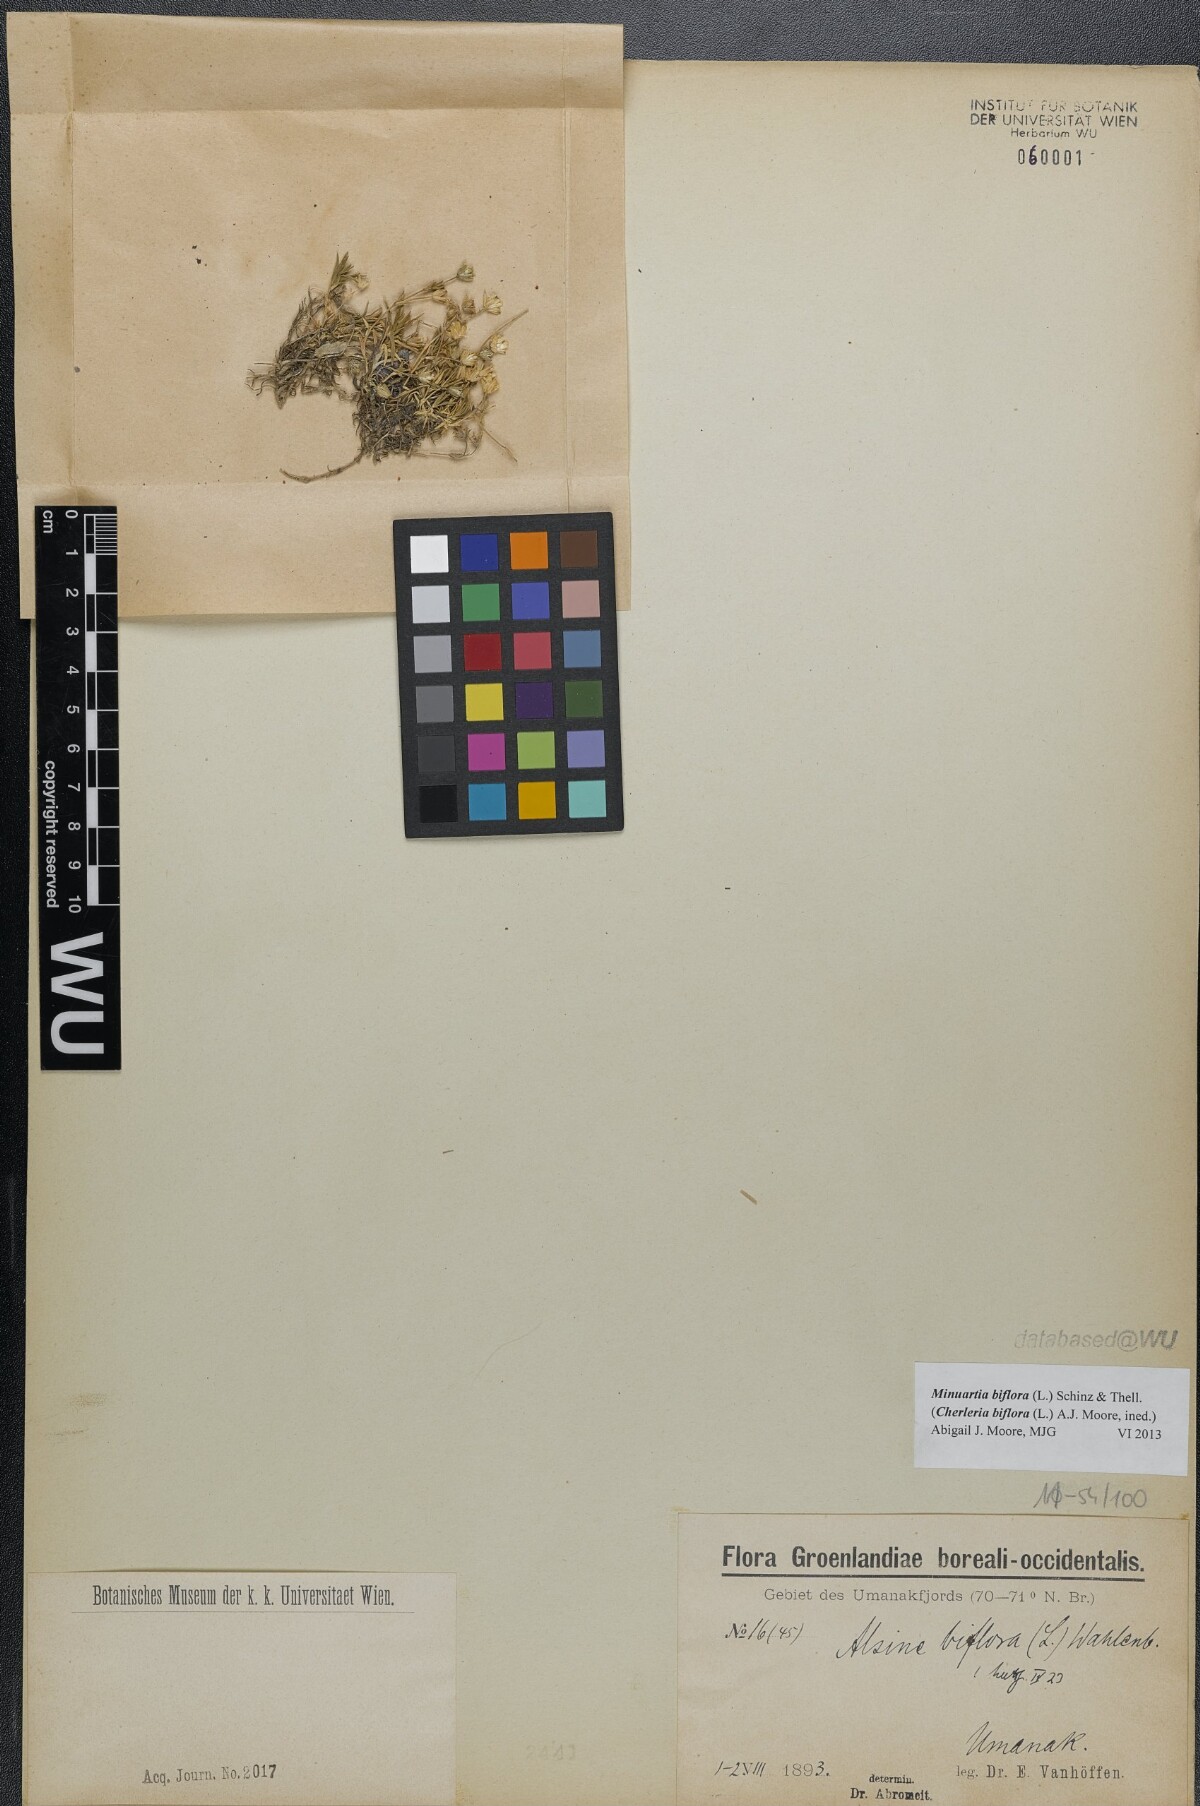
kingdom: Plantae
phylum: Tracheophyta
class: Magnoliopsida
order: Caryophyllales
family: Caryophyllaceae
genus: Cherleria
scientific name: Cherleria biflora
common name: Mountain sandwort
